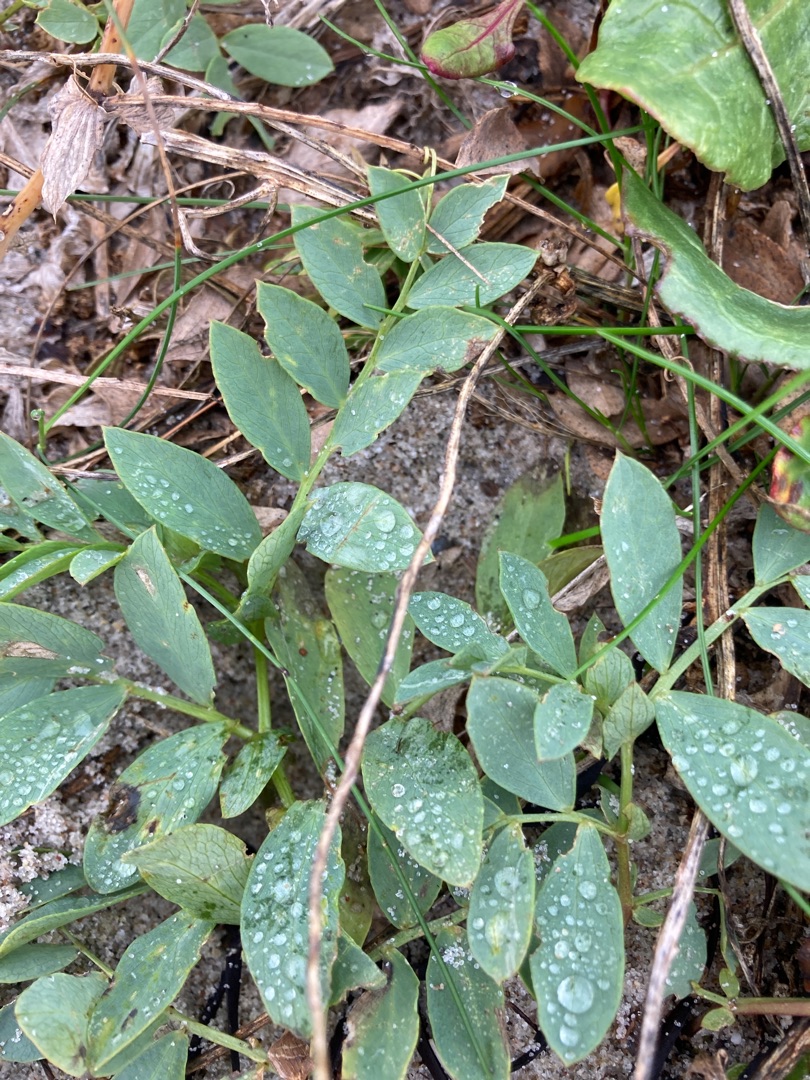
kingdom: Plantae
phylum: Tracheophyta
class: Magnoliopsida
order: Fabales
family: Fabaceae
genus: Lathyrus
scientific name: Lathyrus japonicus
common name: Strand-fladbælg
